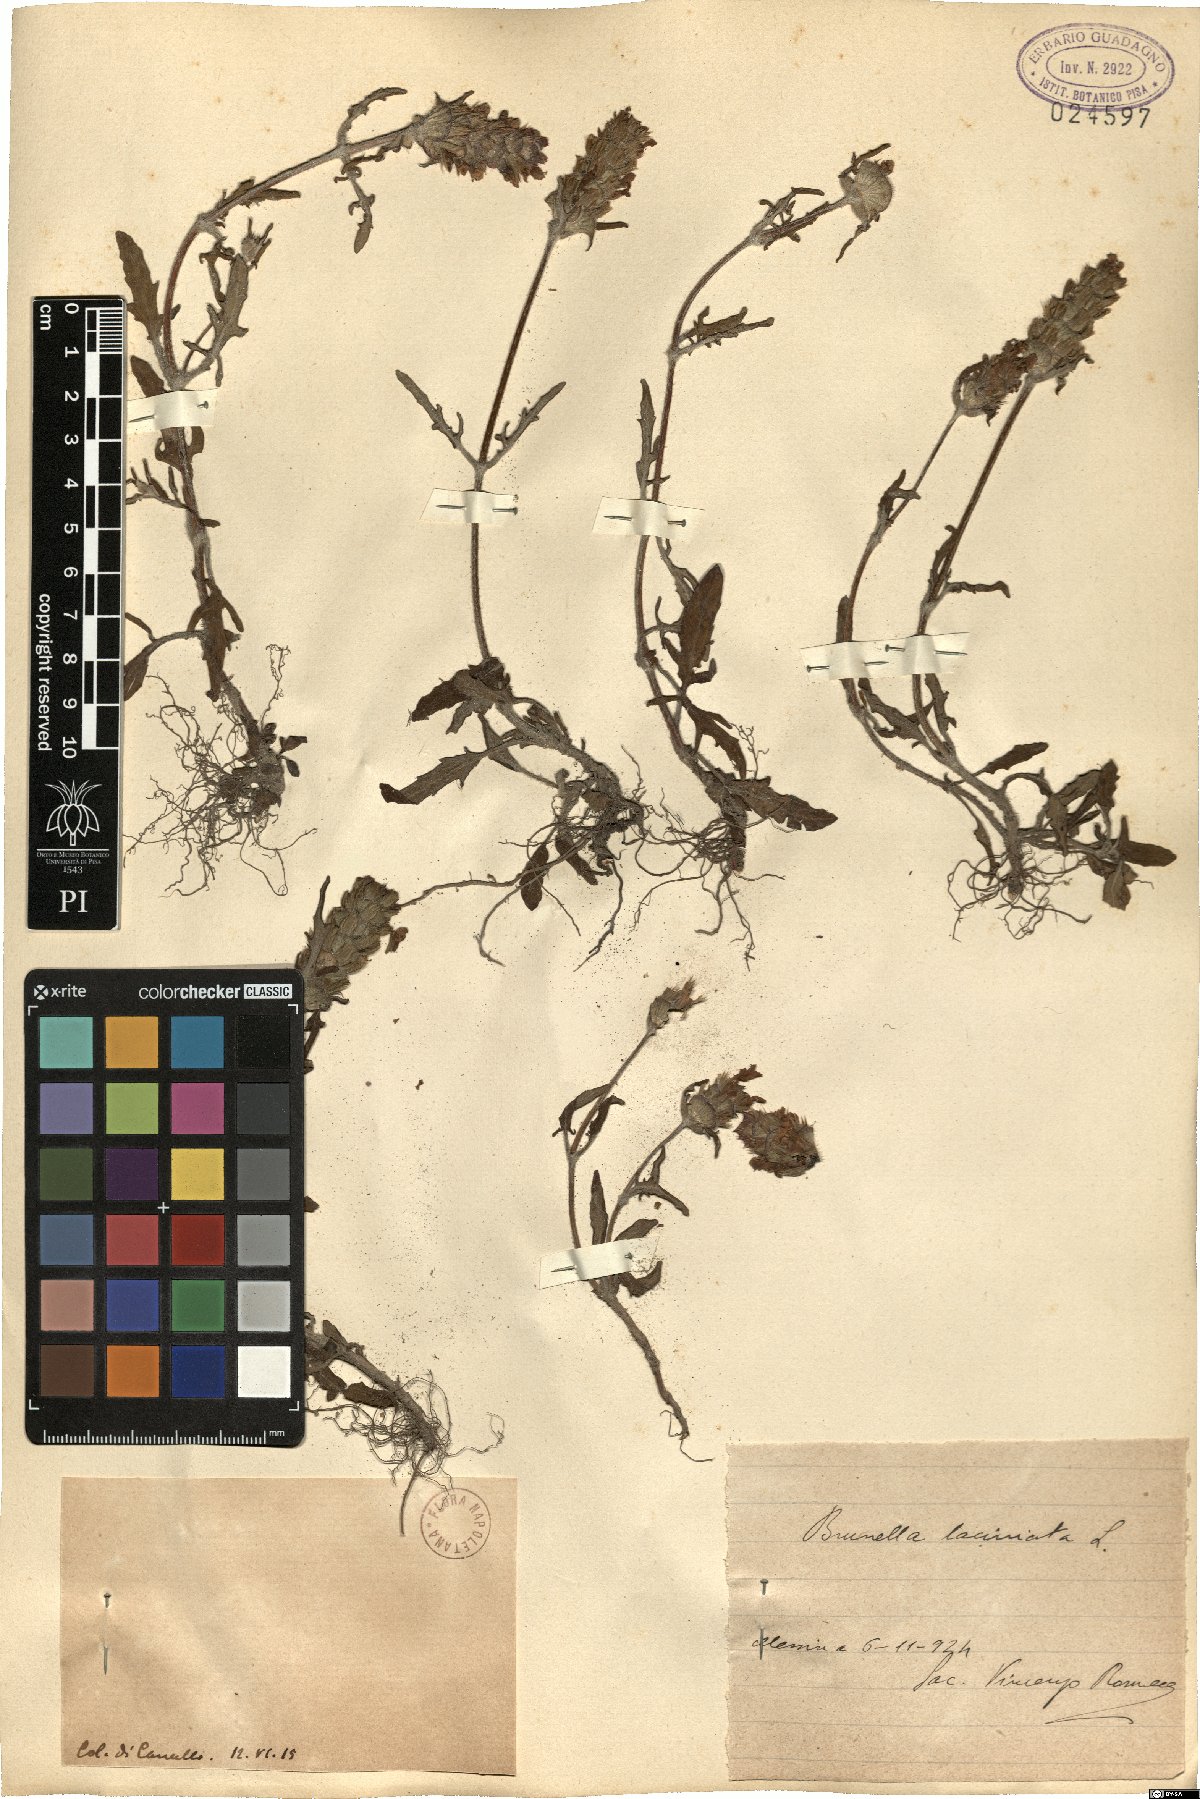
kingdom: Plantae
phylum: Tracheophyta
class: Magnoliopsida
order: Lamiales
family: Lamiaceae
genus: Prunella
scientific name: Prunella laciniata
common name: Cut-leaved selfheal
